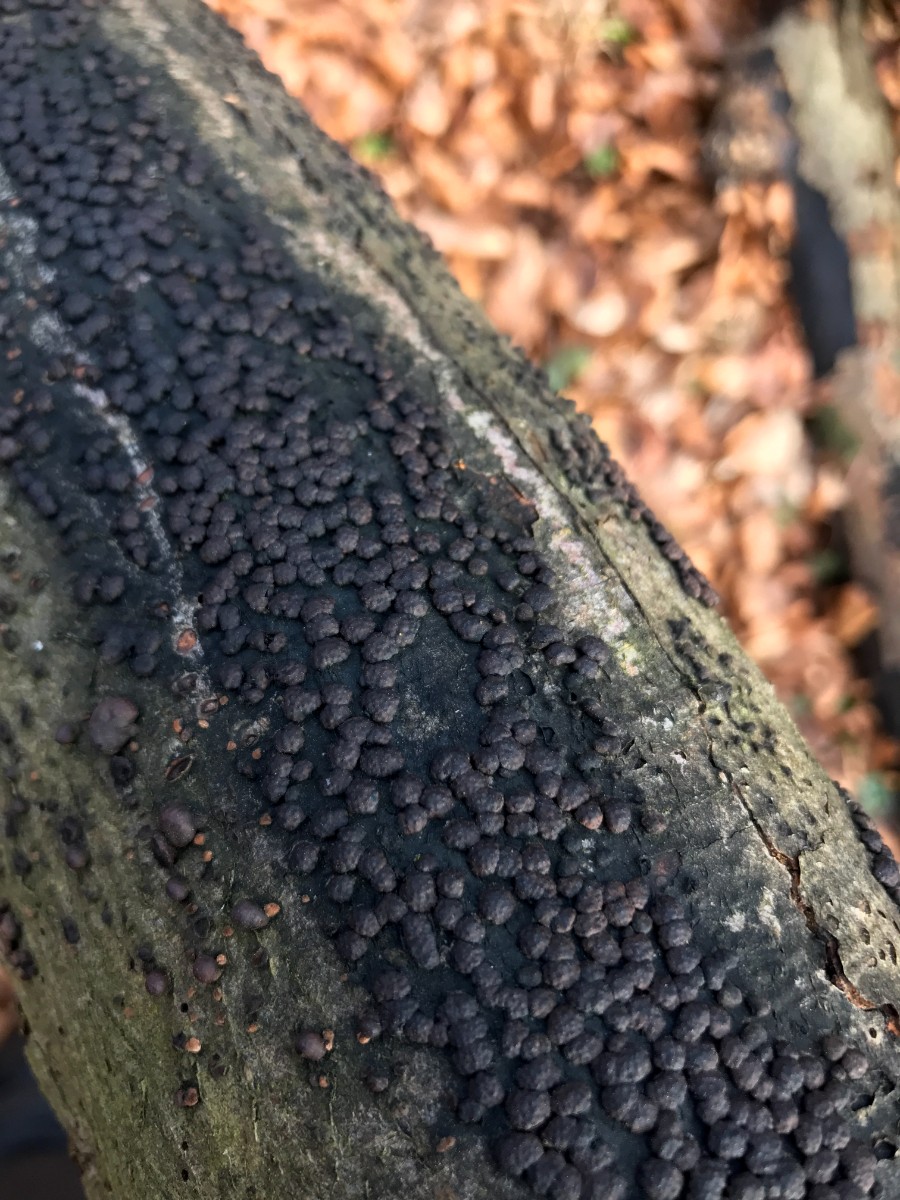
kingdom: Fungi
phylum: Ascomycota
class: Sordariomycetes
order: Xylariales
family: Hypoxylaceae
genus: Hypoxylon
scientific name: Hypoxylon fragiforme
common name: kuljordbær
